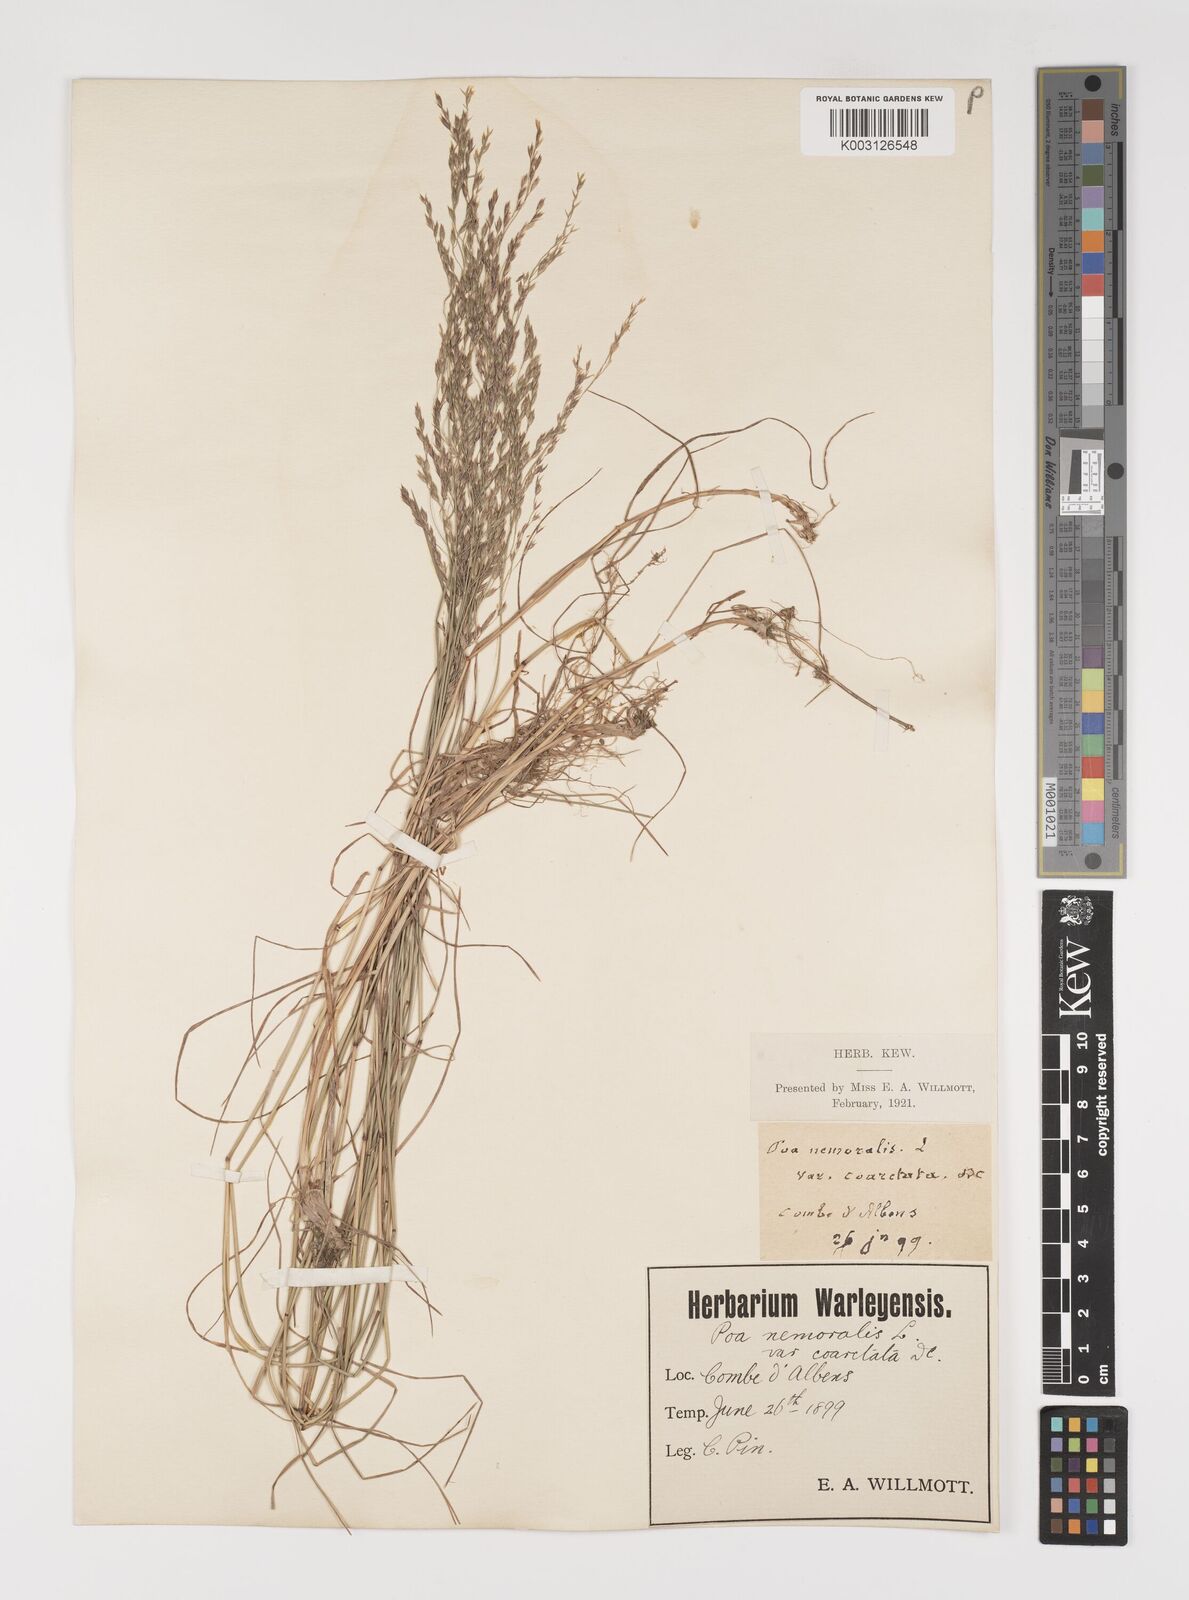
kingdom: Plantae
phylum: Tracheophyta
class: Liliopsida
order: Poales
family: Poaceae
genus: Poa
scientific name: Poa nemoralis
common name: Wood bluegrass
